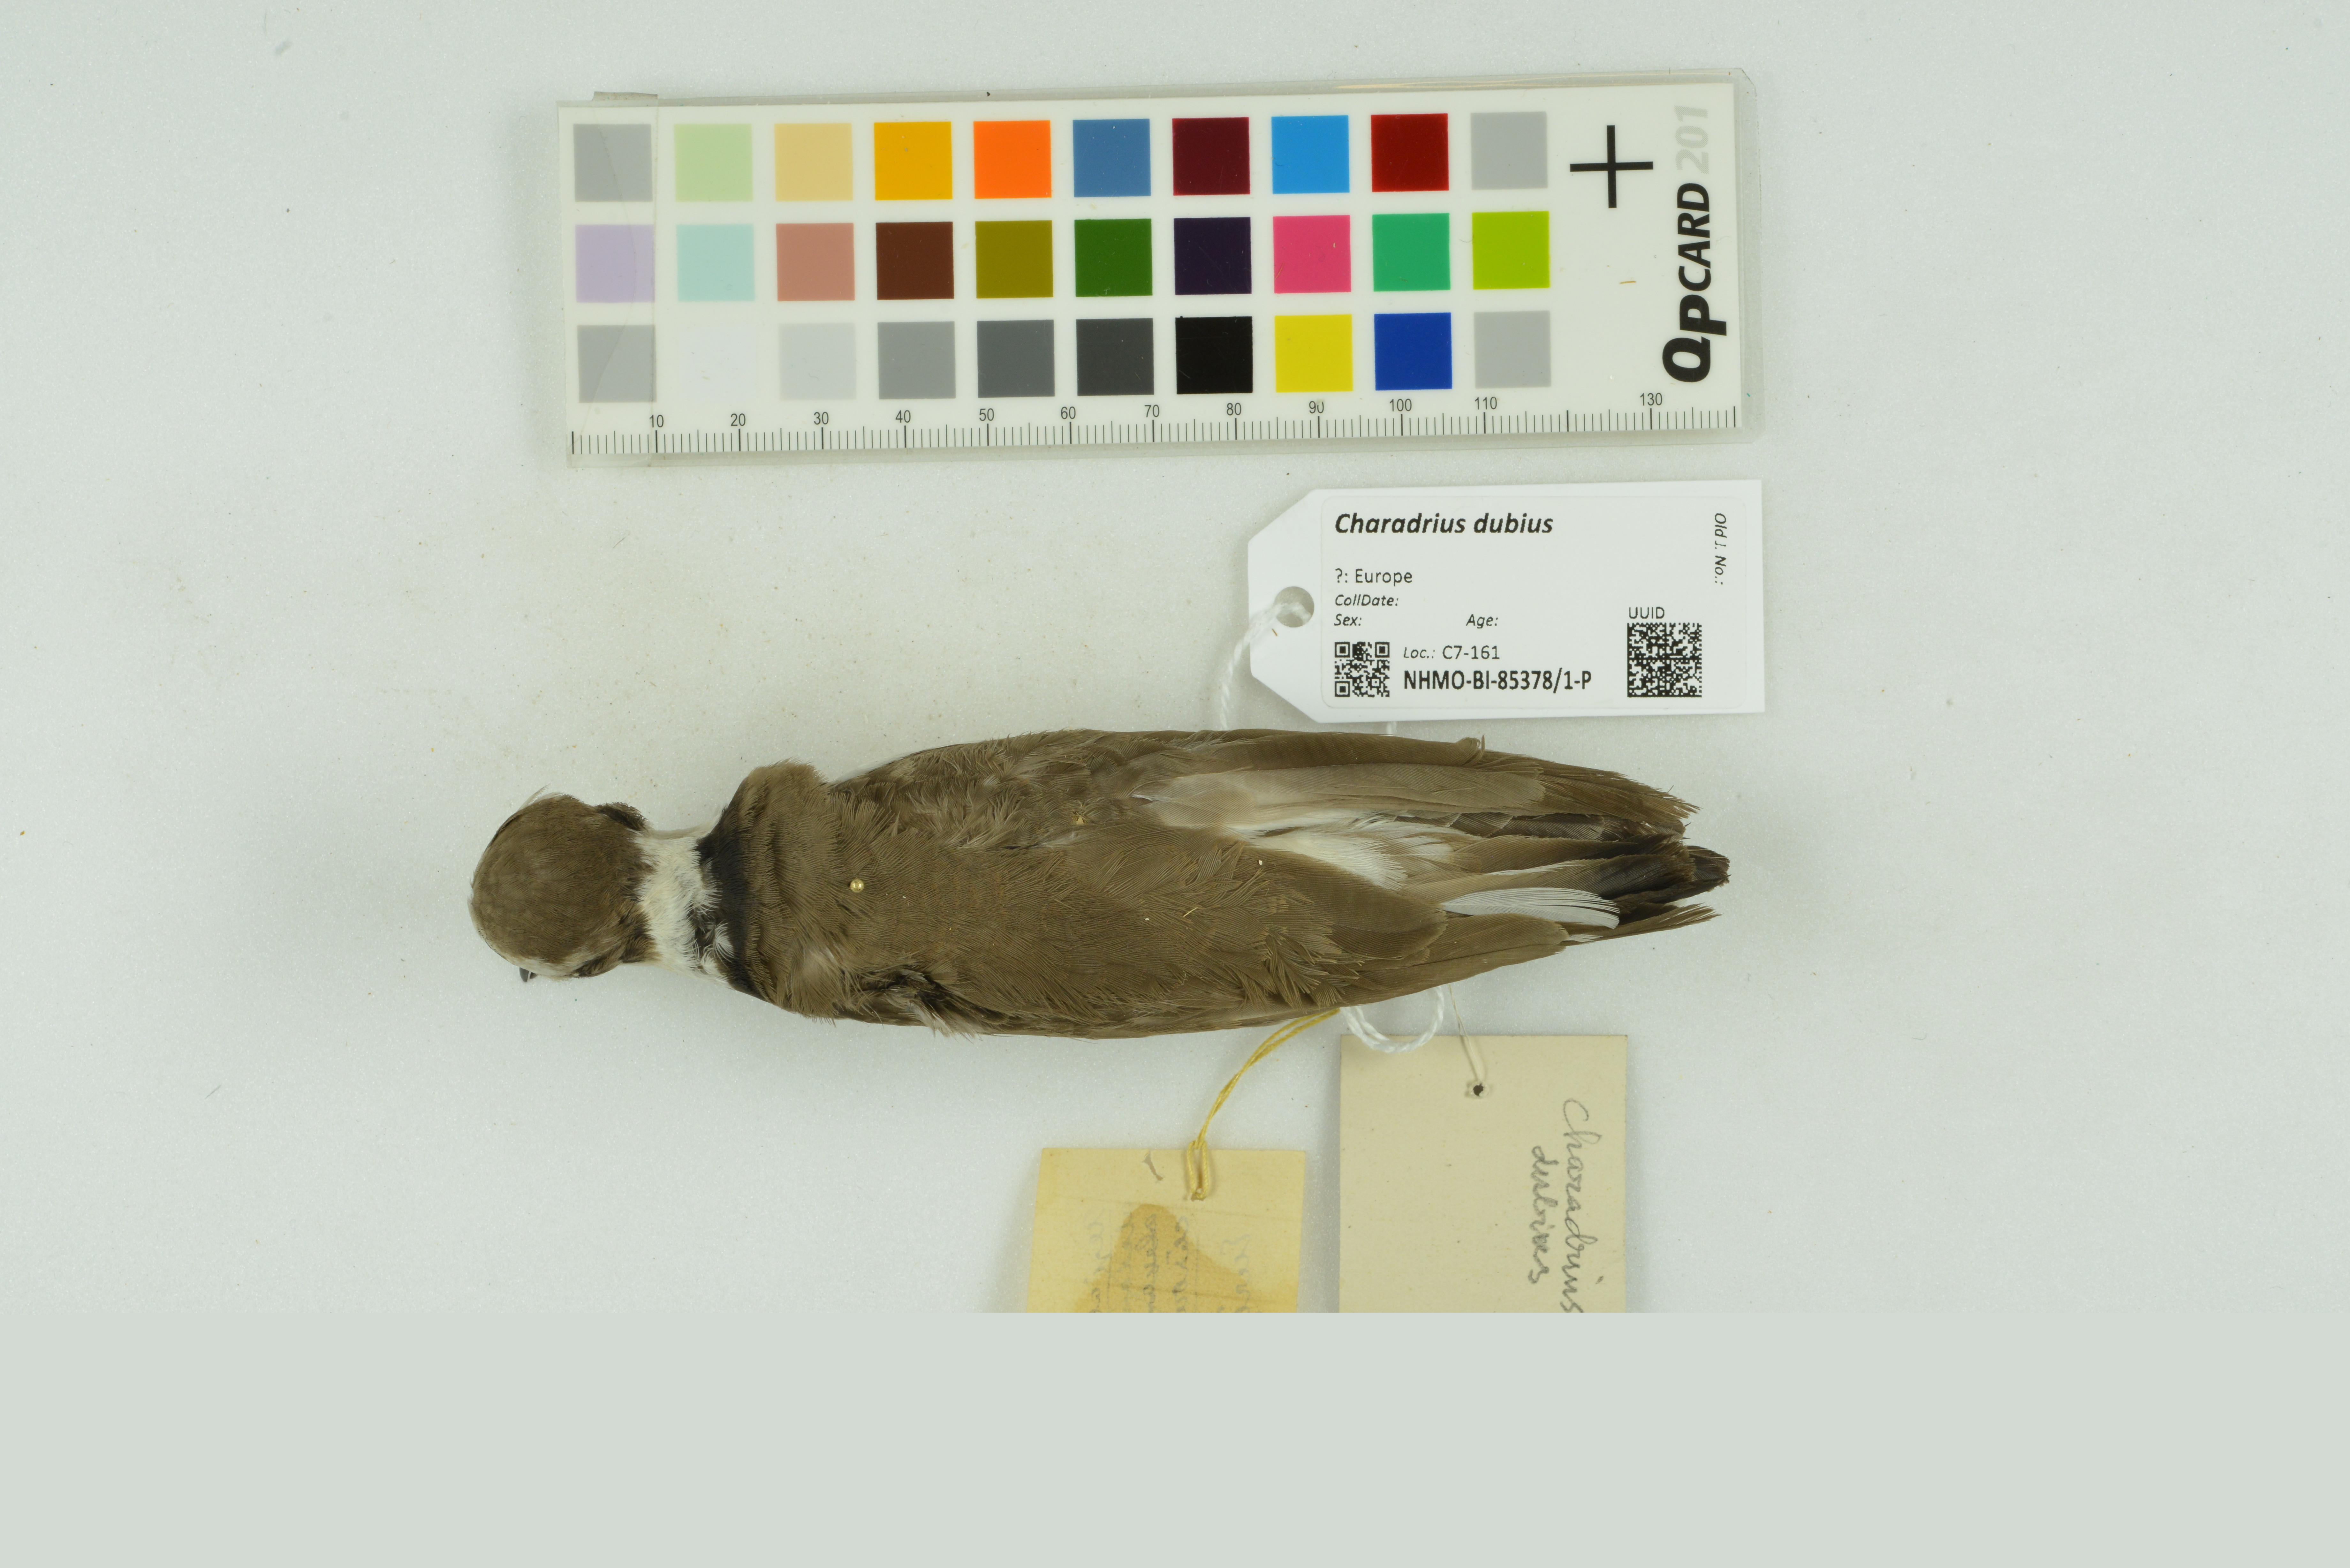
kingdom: Animalia
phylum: Chordata
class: Aves
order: Charadriiformes
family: Charadriidae
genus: Charadrius
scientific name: Charadrius dubius
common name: Little ringed plover
